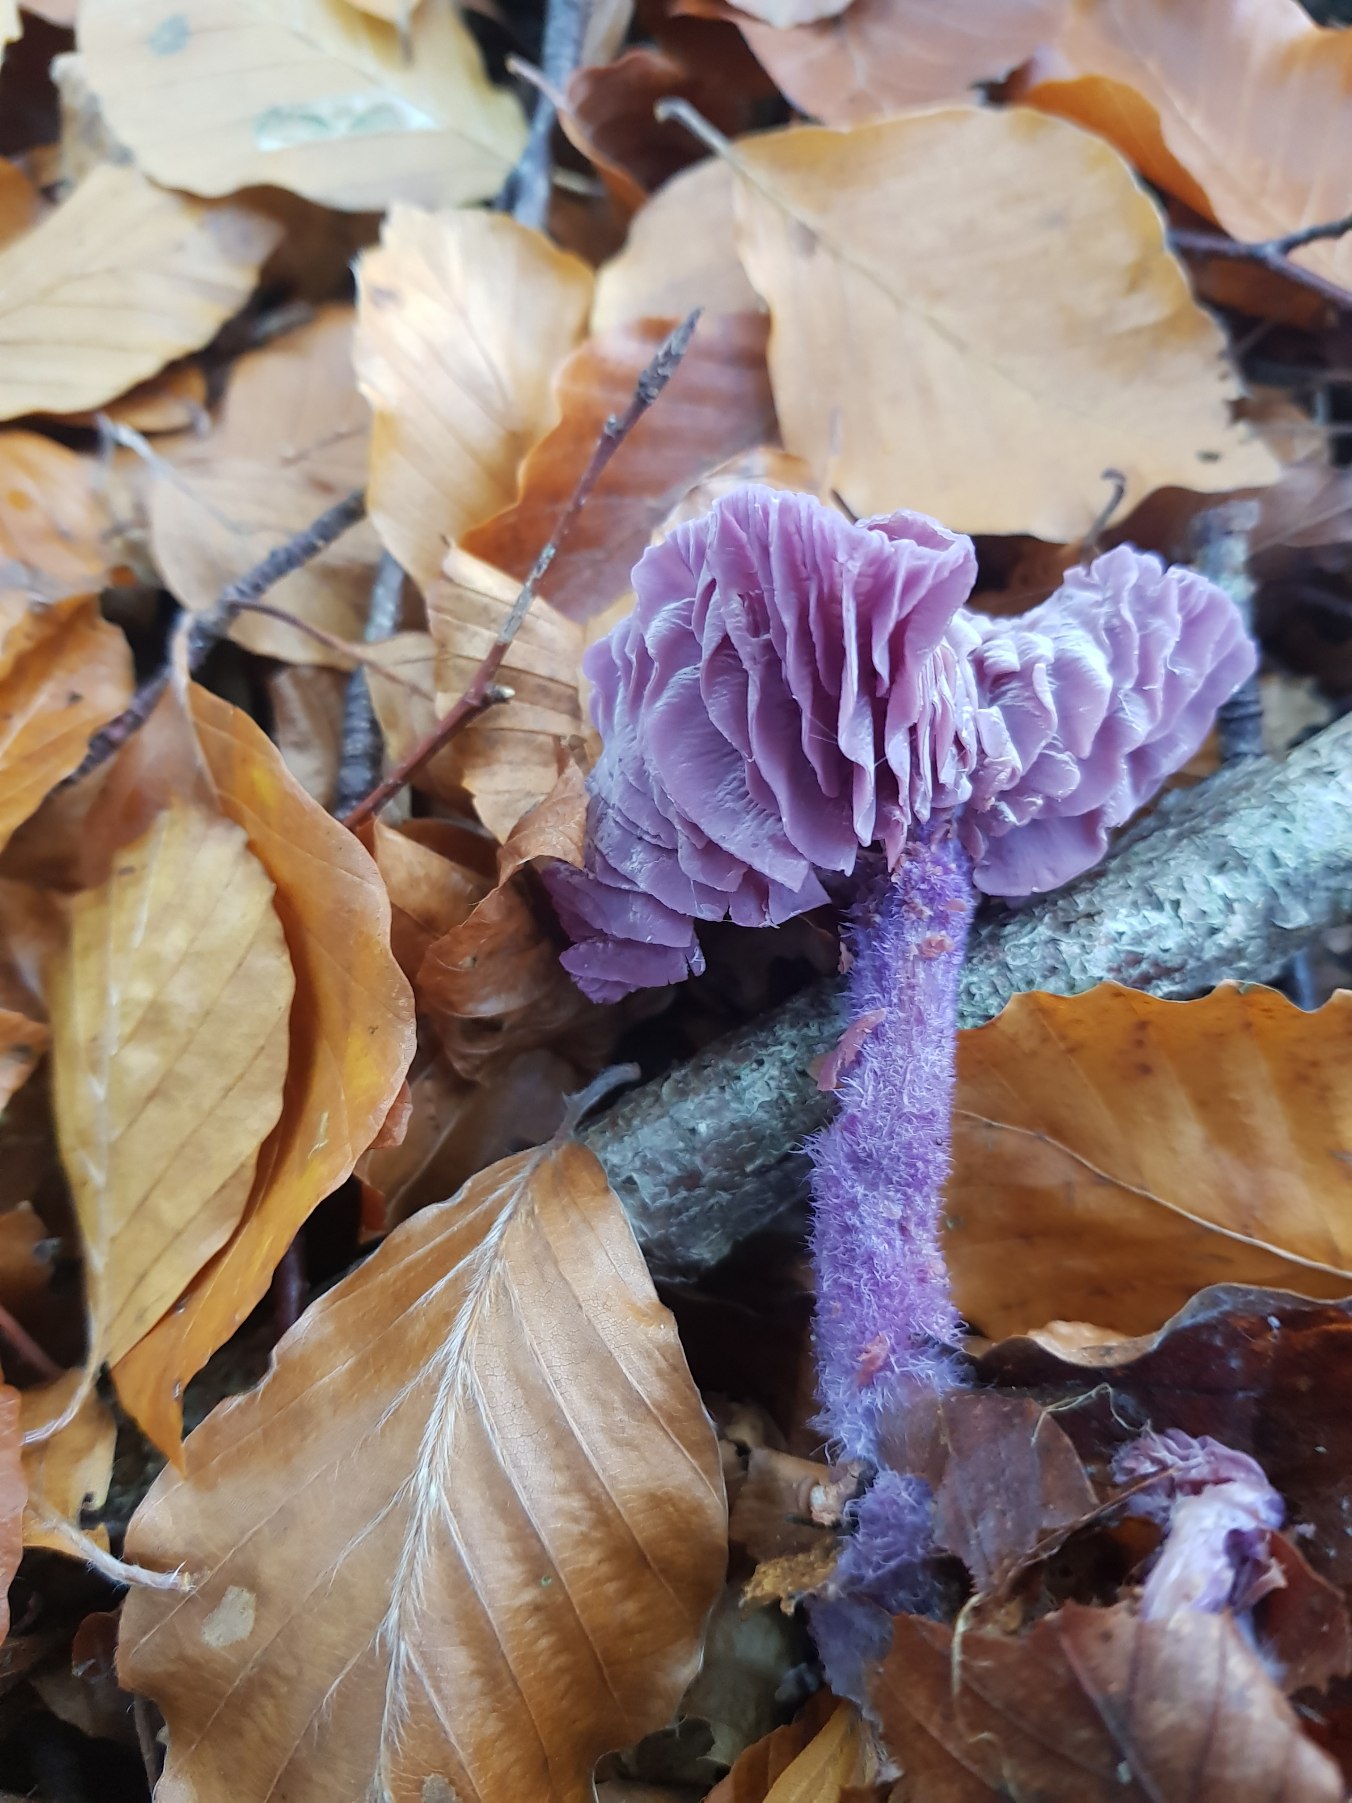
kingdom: Fungi
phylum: Basidiomycota
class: Agaricomycetes
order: Agaricales
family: Hydnangiaceae
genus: Laccaria
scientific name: Laccaria amethystina
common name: Violet ametysthat
